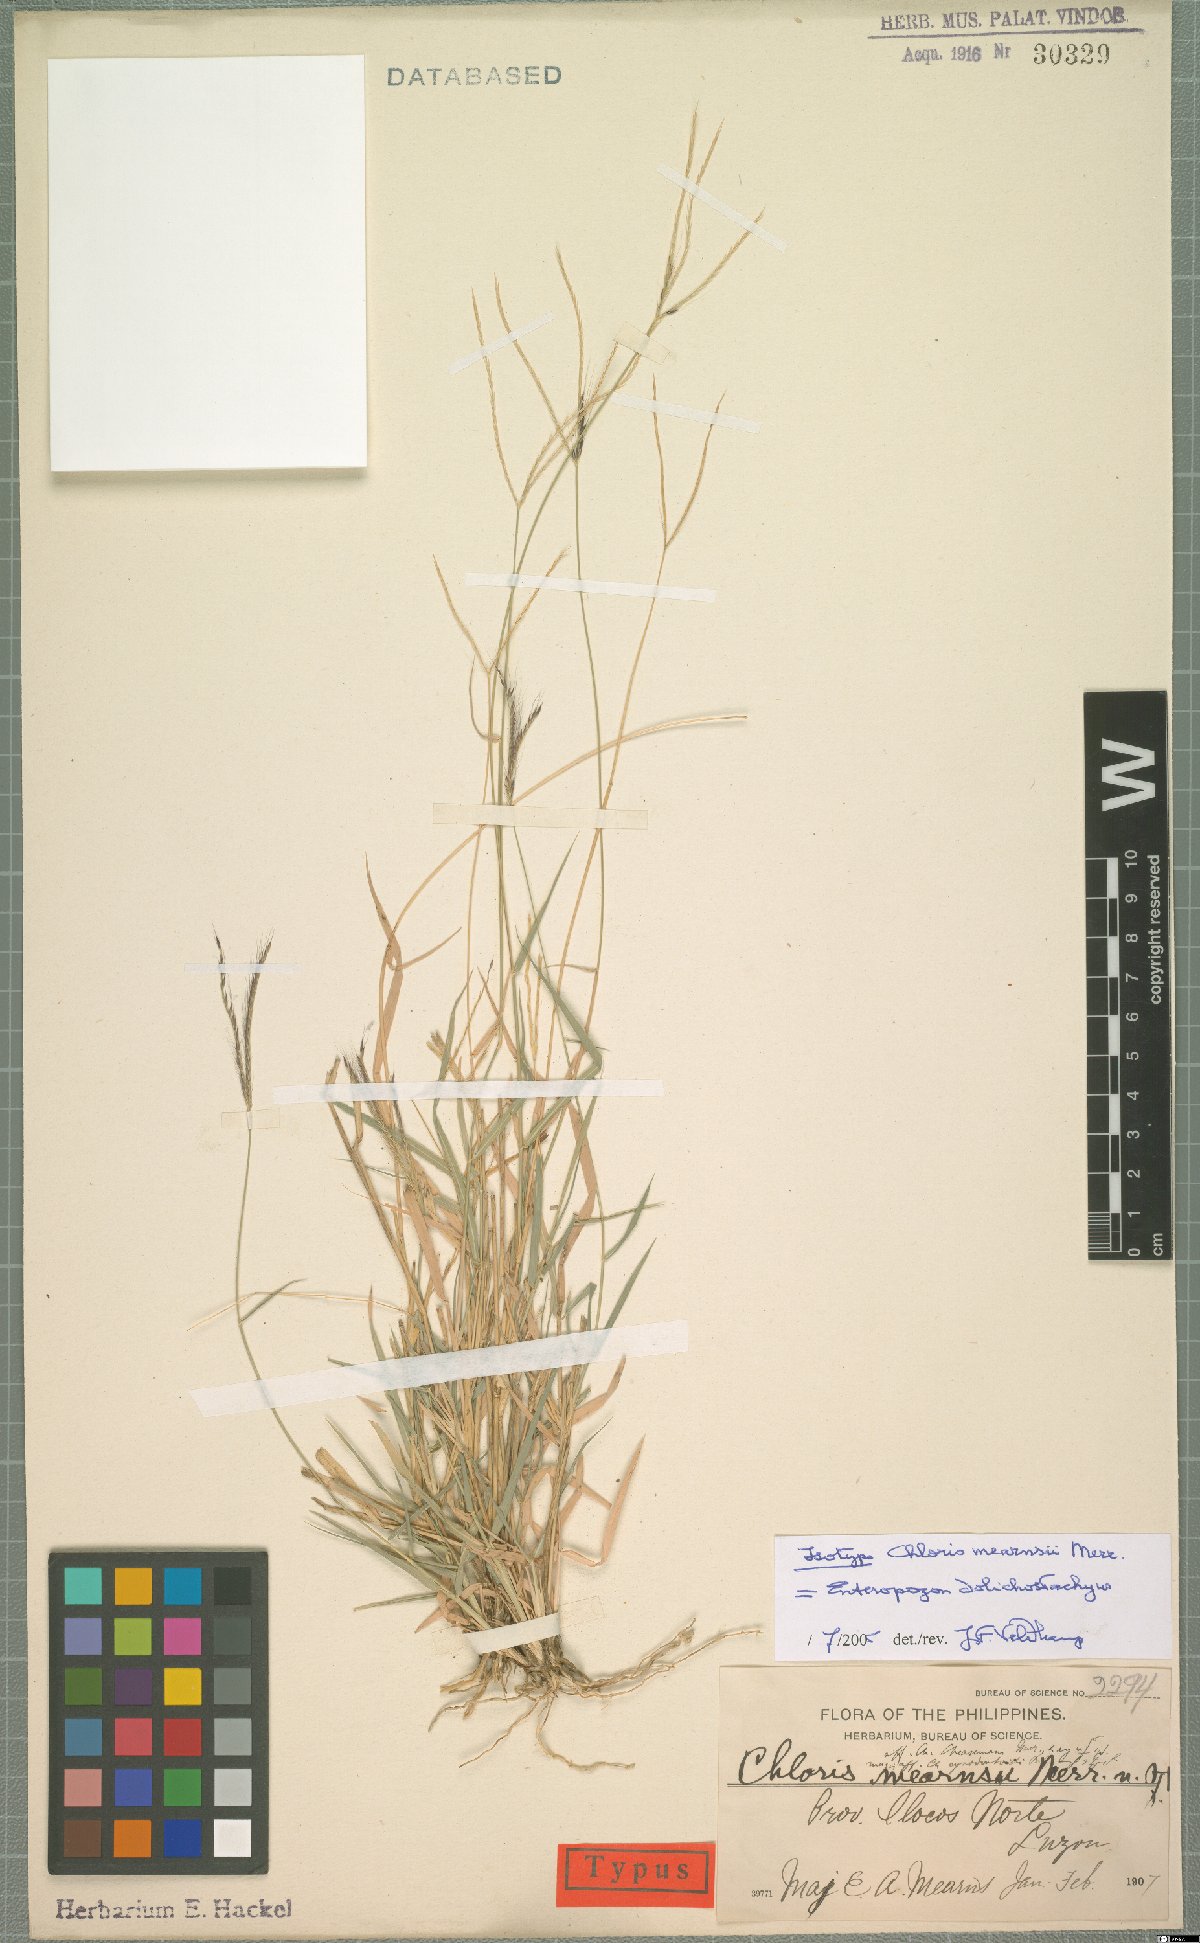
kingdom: Plantae
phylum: Tracheophyta
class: Liliopsida
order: Poales
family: Poaceae
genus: Enteropogon
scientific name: Enteropogon dolichostachyus
